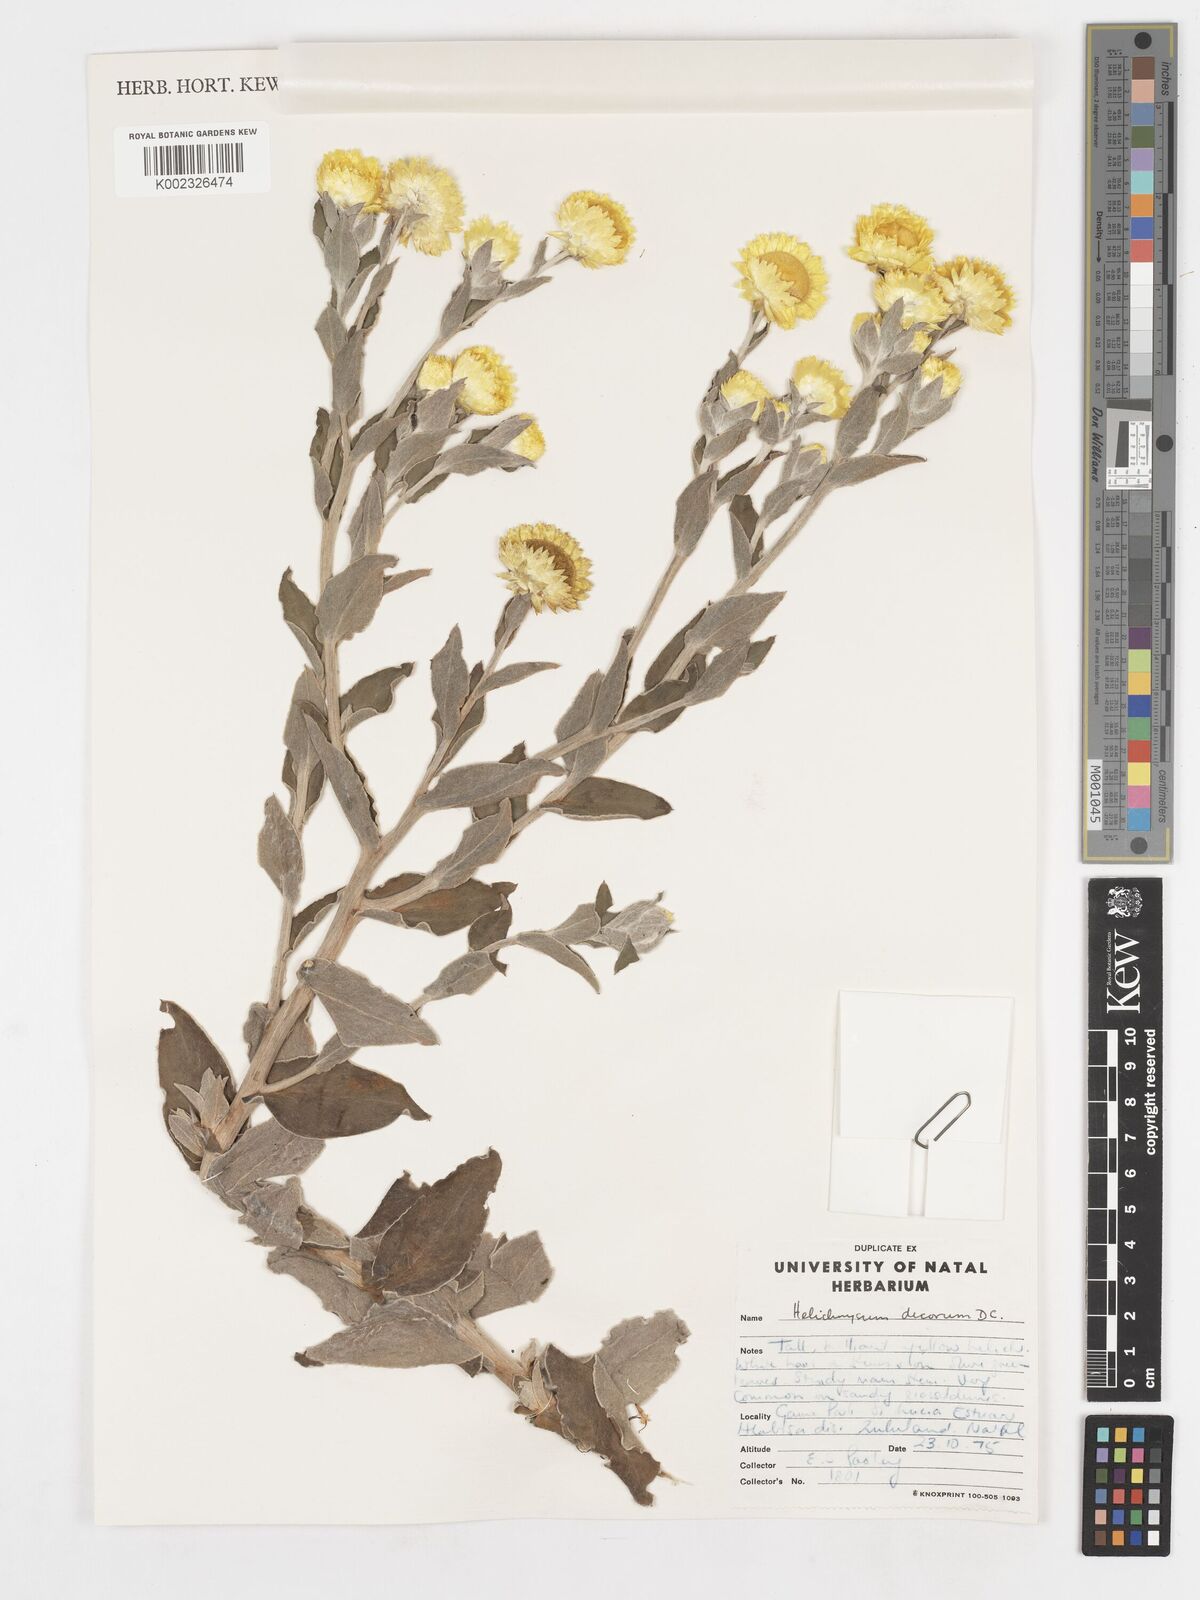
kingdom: Plantae
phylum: Tracheophyta
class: Magnoliopsida
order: Asterales
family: Asteraceae
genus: Helichrysum
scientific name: Helichrysum decorum
